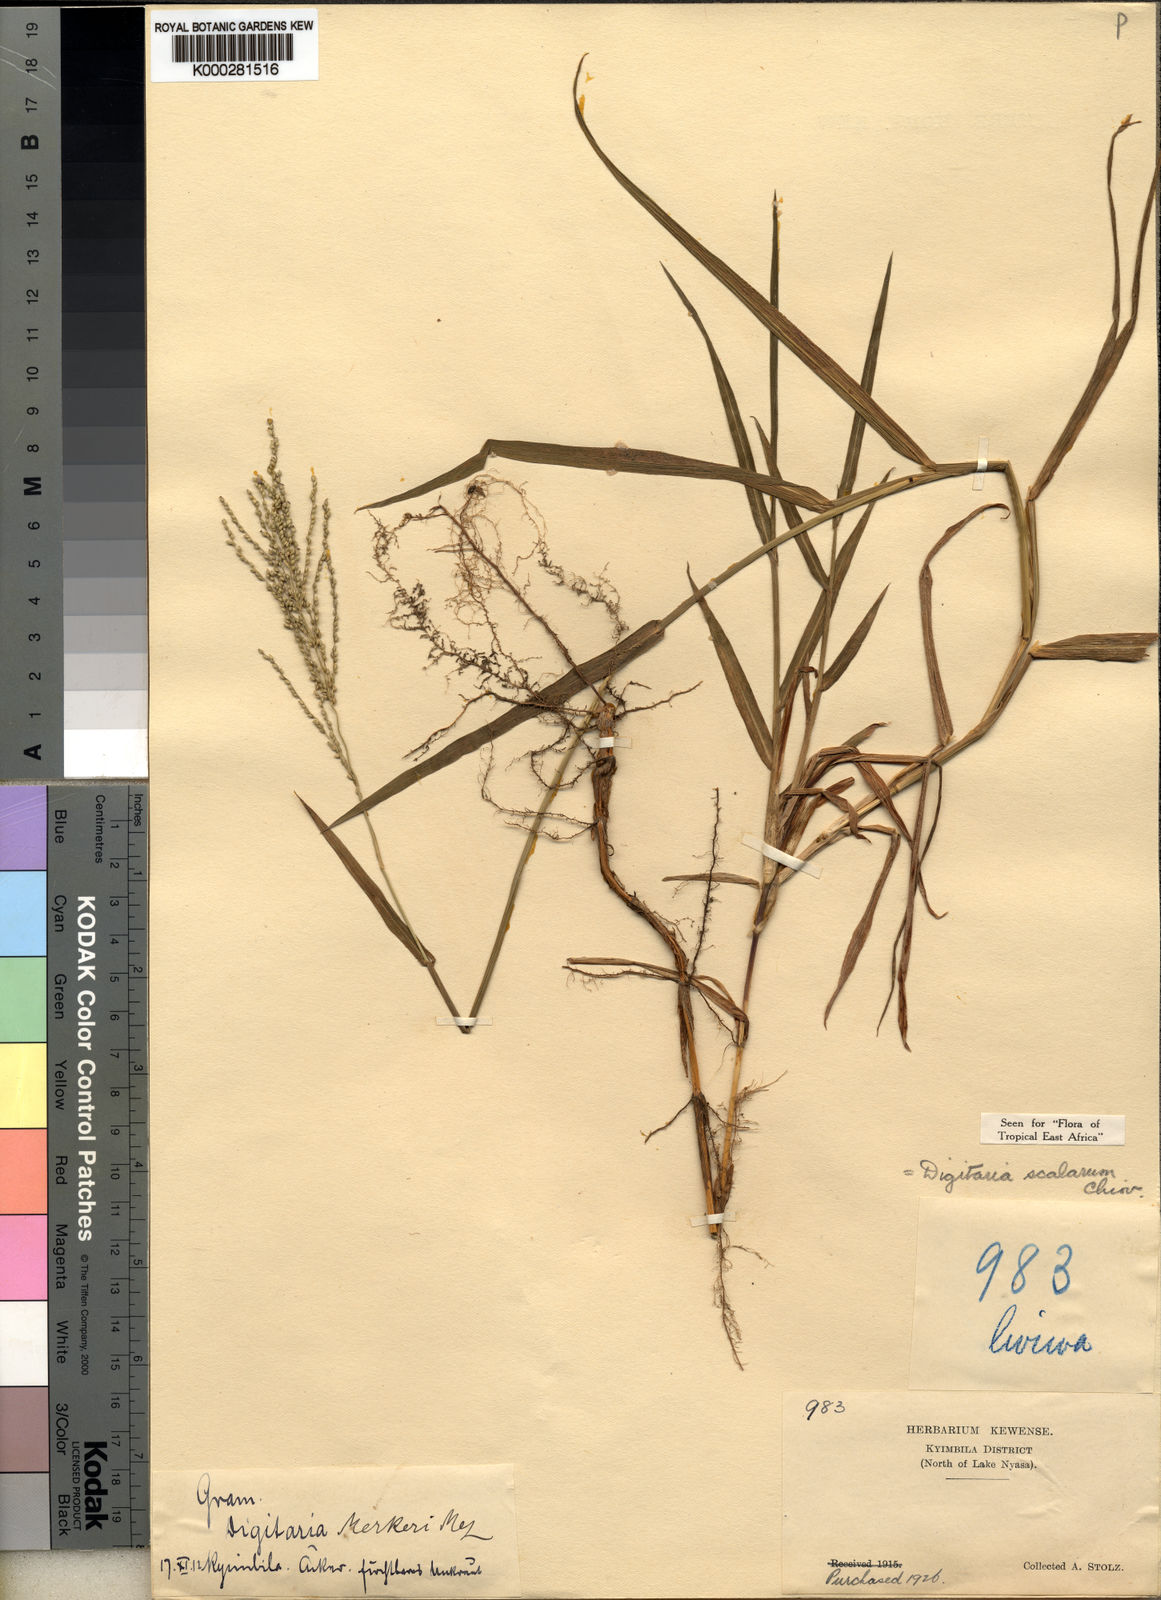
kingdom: Plantae
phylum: Tracheophyta
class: Liliopsida
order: Poales
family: Poaceae
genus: Digitaria
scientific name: Digitaria abyssinica
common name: African couchgrass
